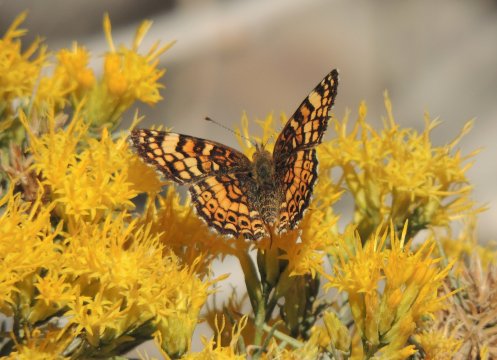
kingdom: Animalia
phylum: Arthropoda
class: Insecta
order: Lepidoptera
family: Nymphalidae
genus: Eresia
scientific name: Eresia aveyrona
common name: Mylitta Crescent
